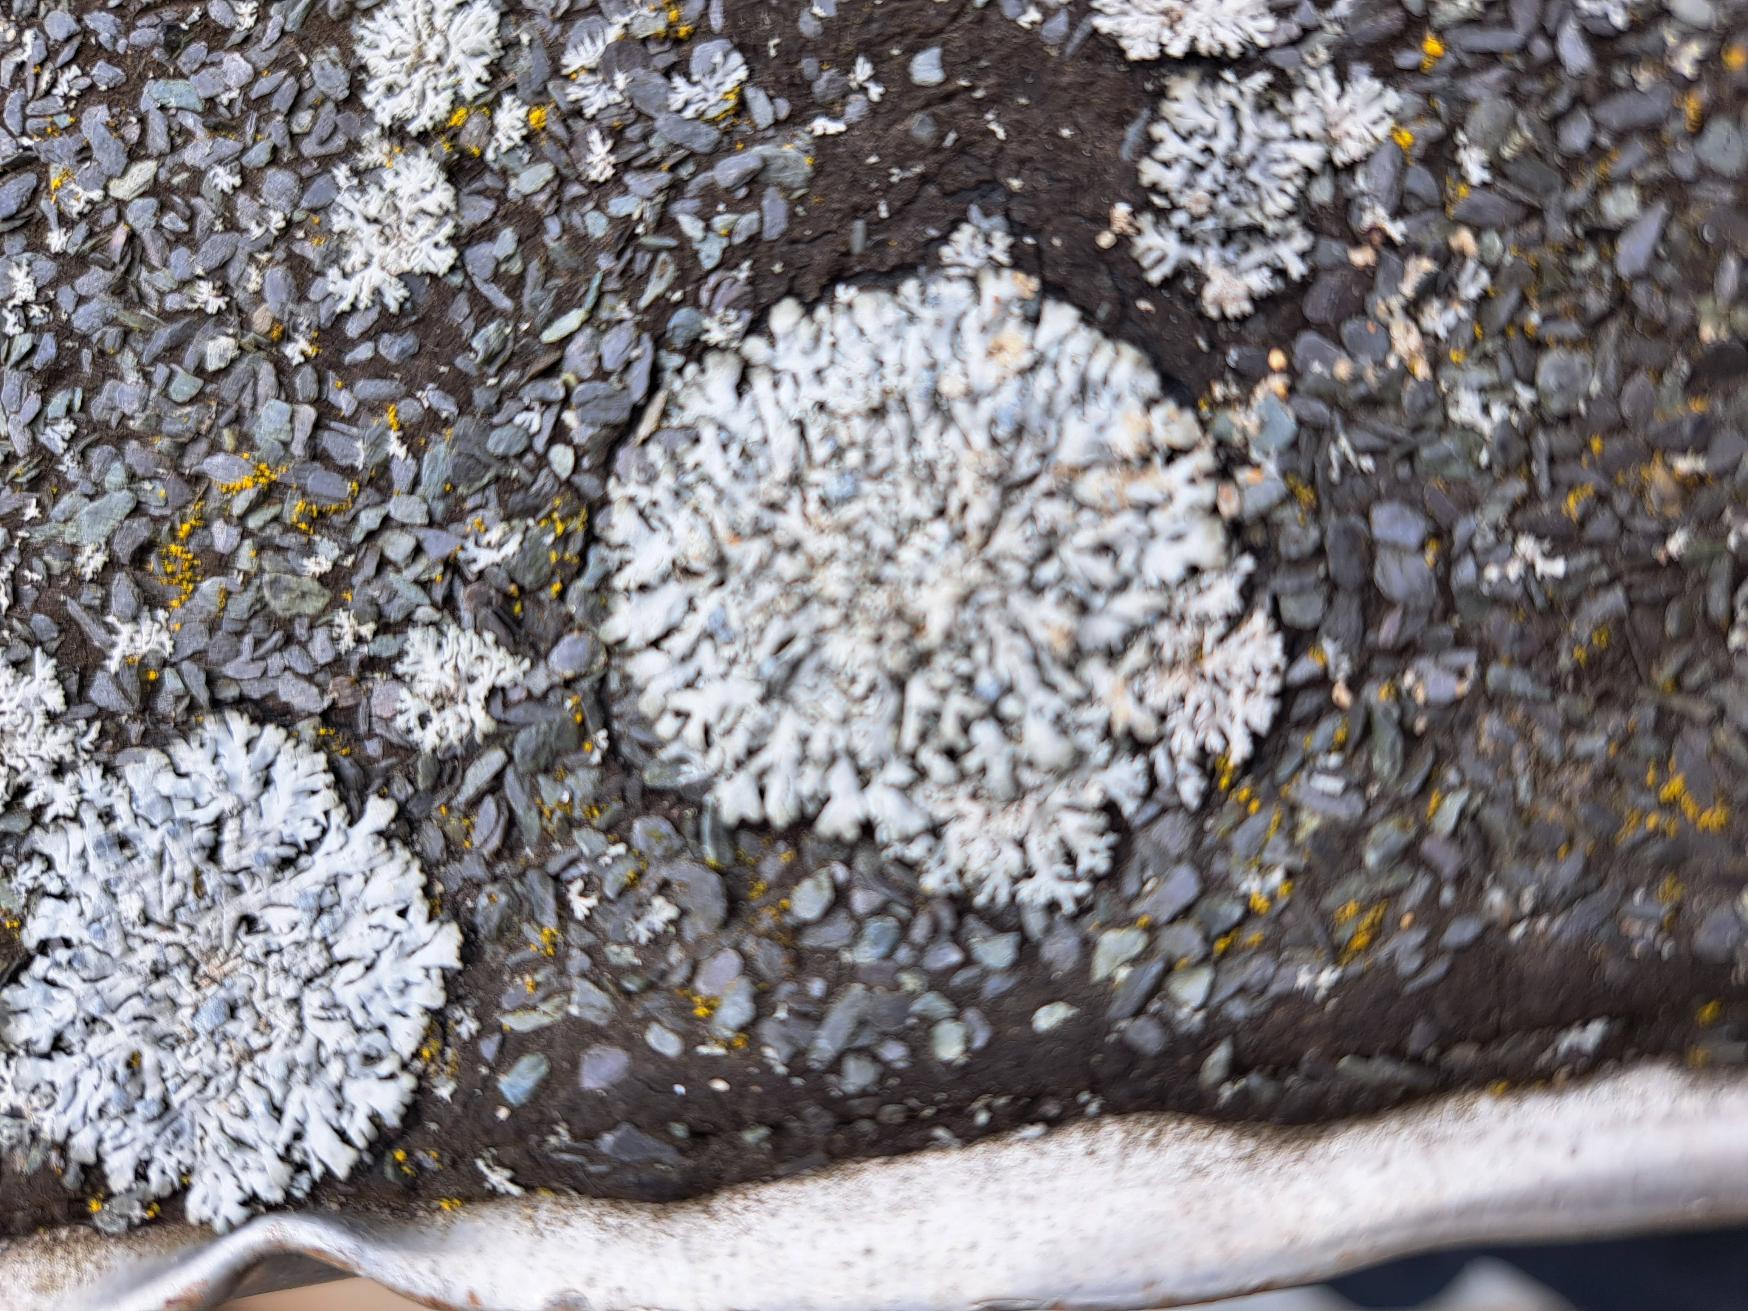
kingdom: Fungi
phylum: Ascomycota
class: Lecanoromycetes
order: Caliciales
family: Physciaceae
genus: Physcia
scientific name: Physcia caesia
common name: Blågrå rosetlav
